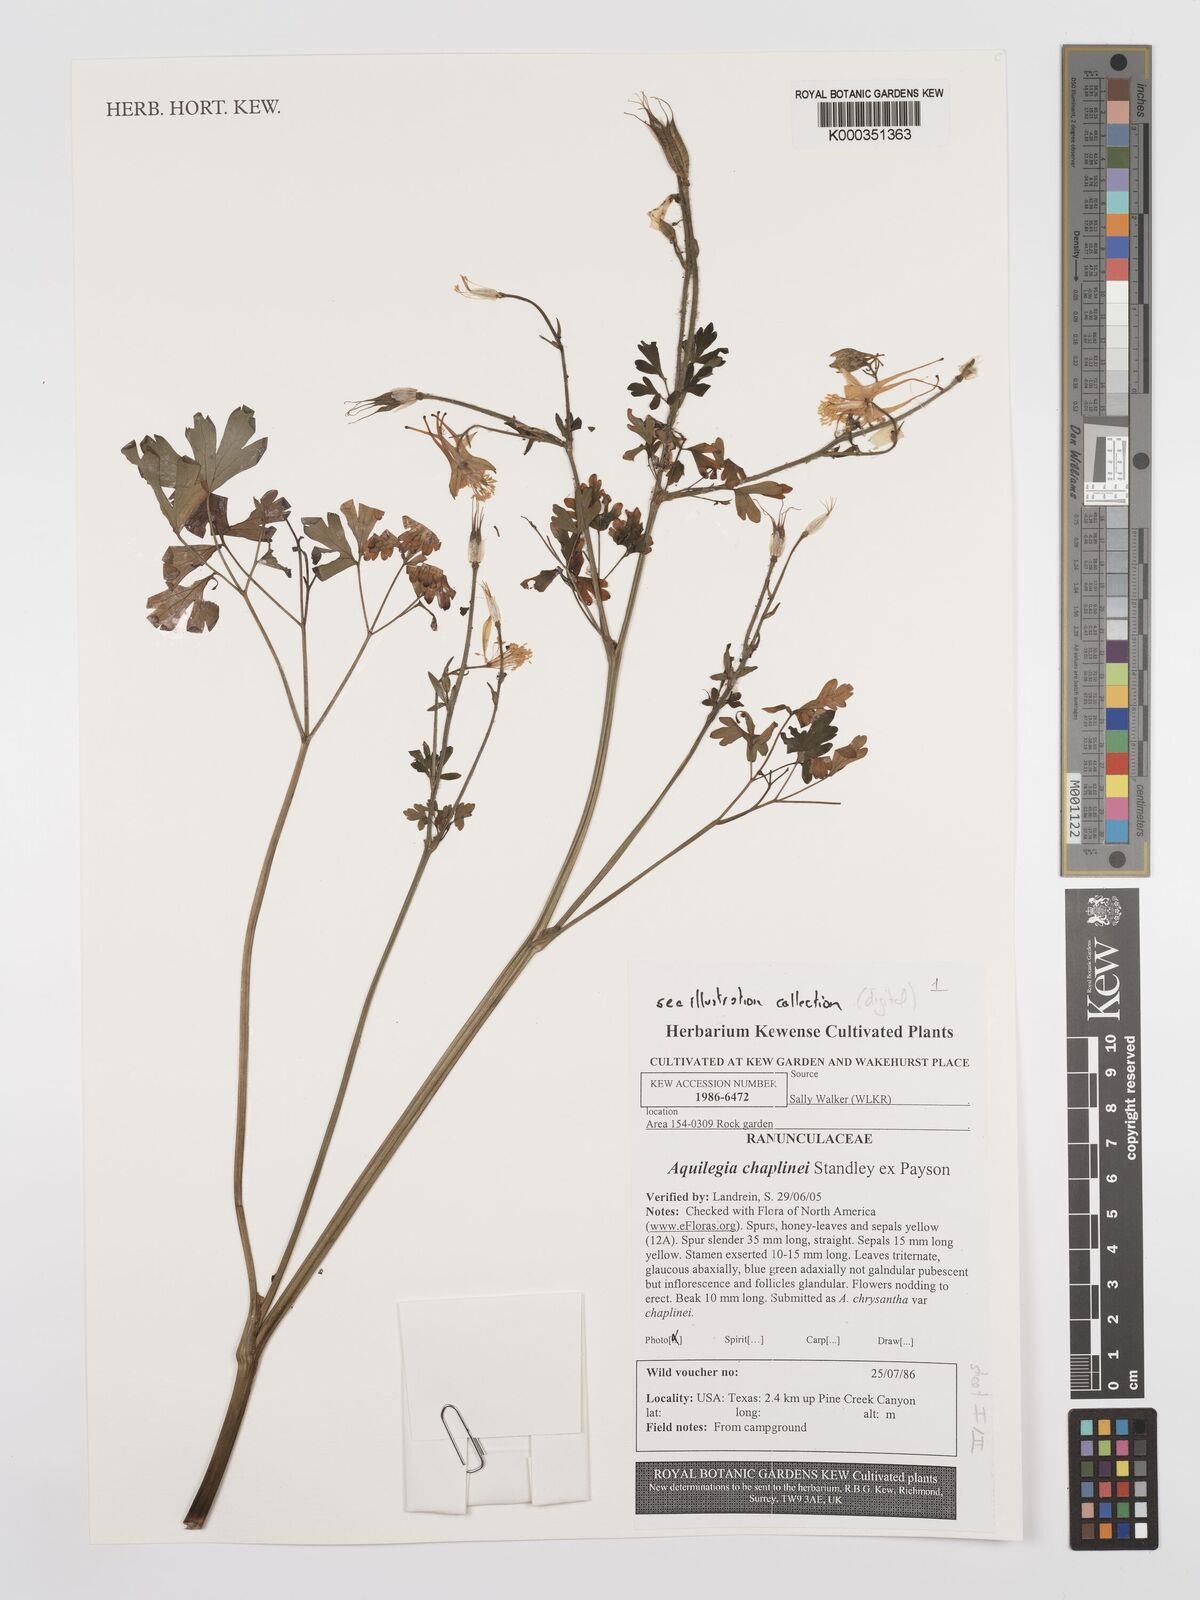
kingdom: Plantae
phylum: Tracheophyta
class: Magnoliopsida
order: Ranunculales
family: Ranunculaceae
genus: Aquilegia
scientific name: Aquilegia chrysantha
